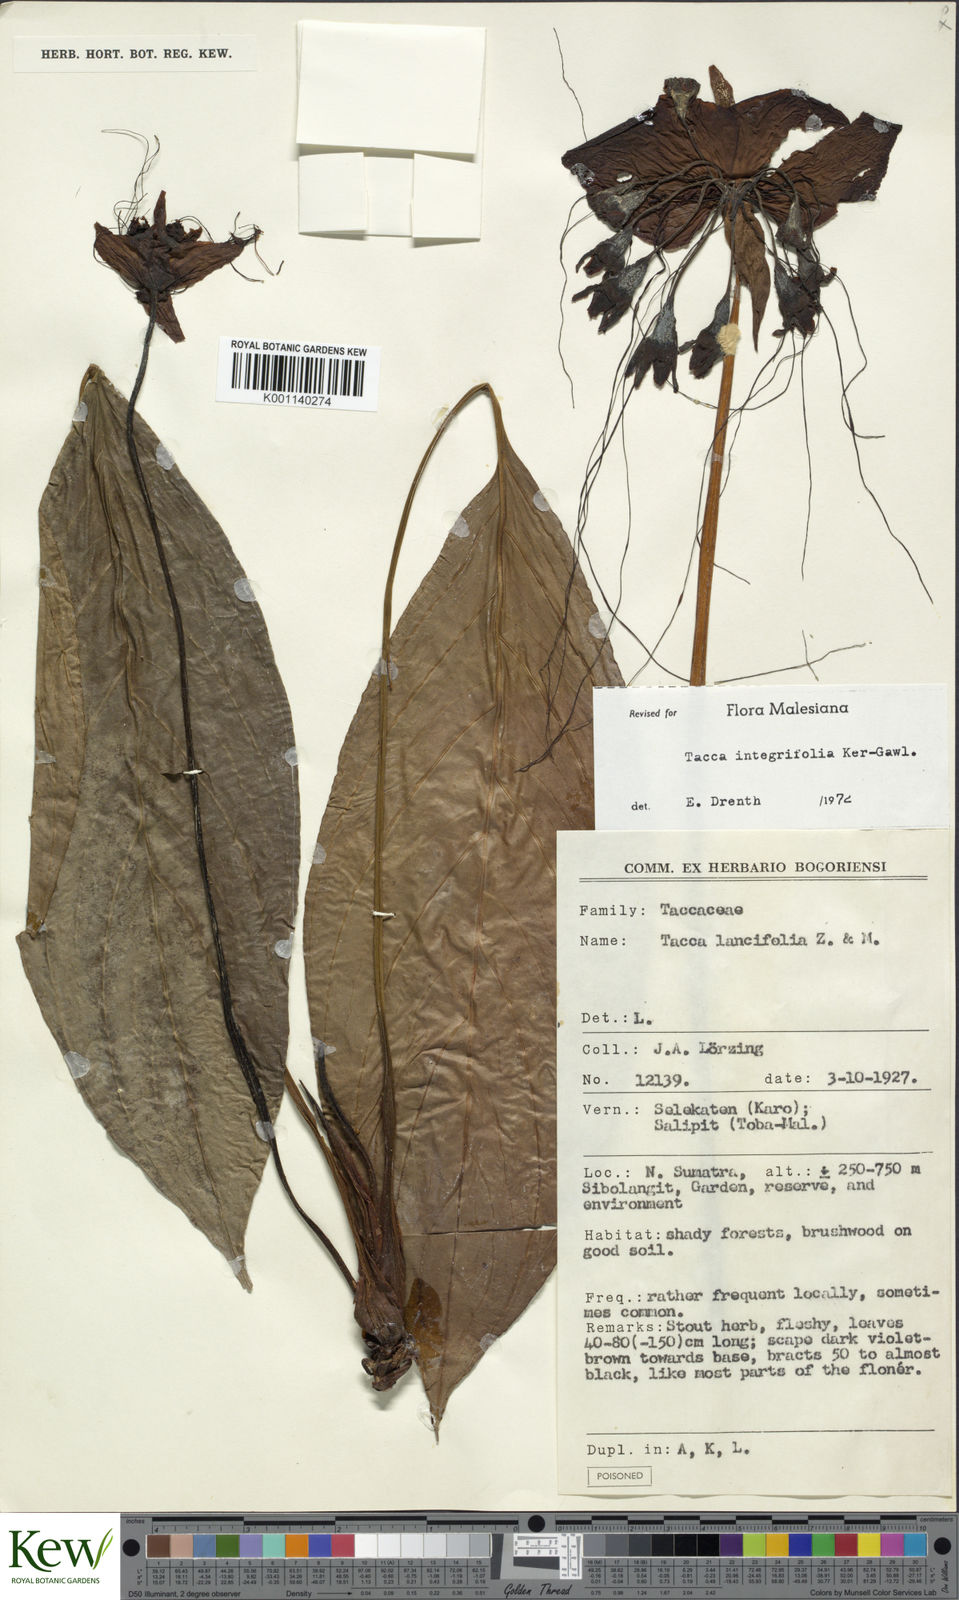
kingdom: Plantae
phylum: Tracheophyta
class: Liliopsida
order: Dioscoreales
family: Dioscoreaceae
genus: Tacca
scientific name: Tacca integrifolia
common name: Batplant
